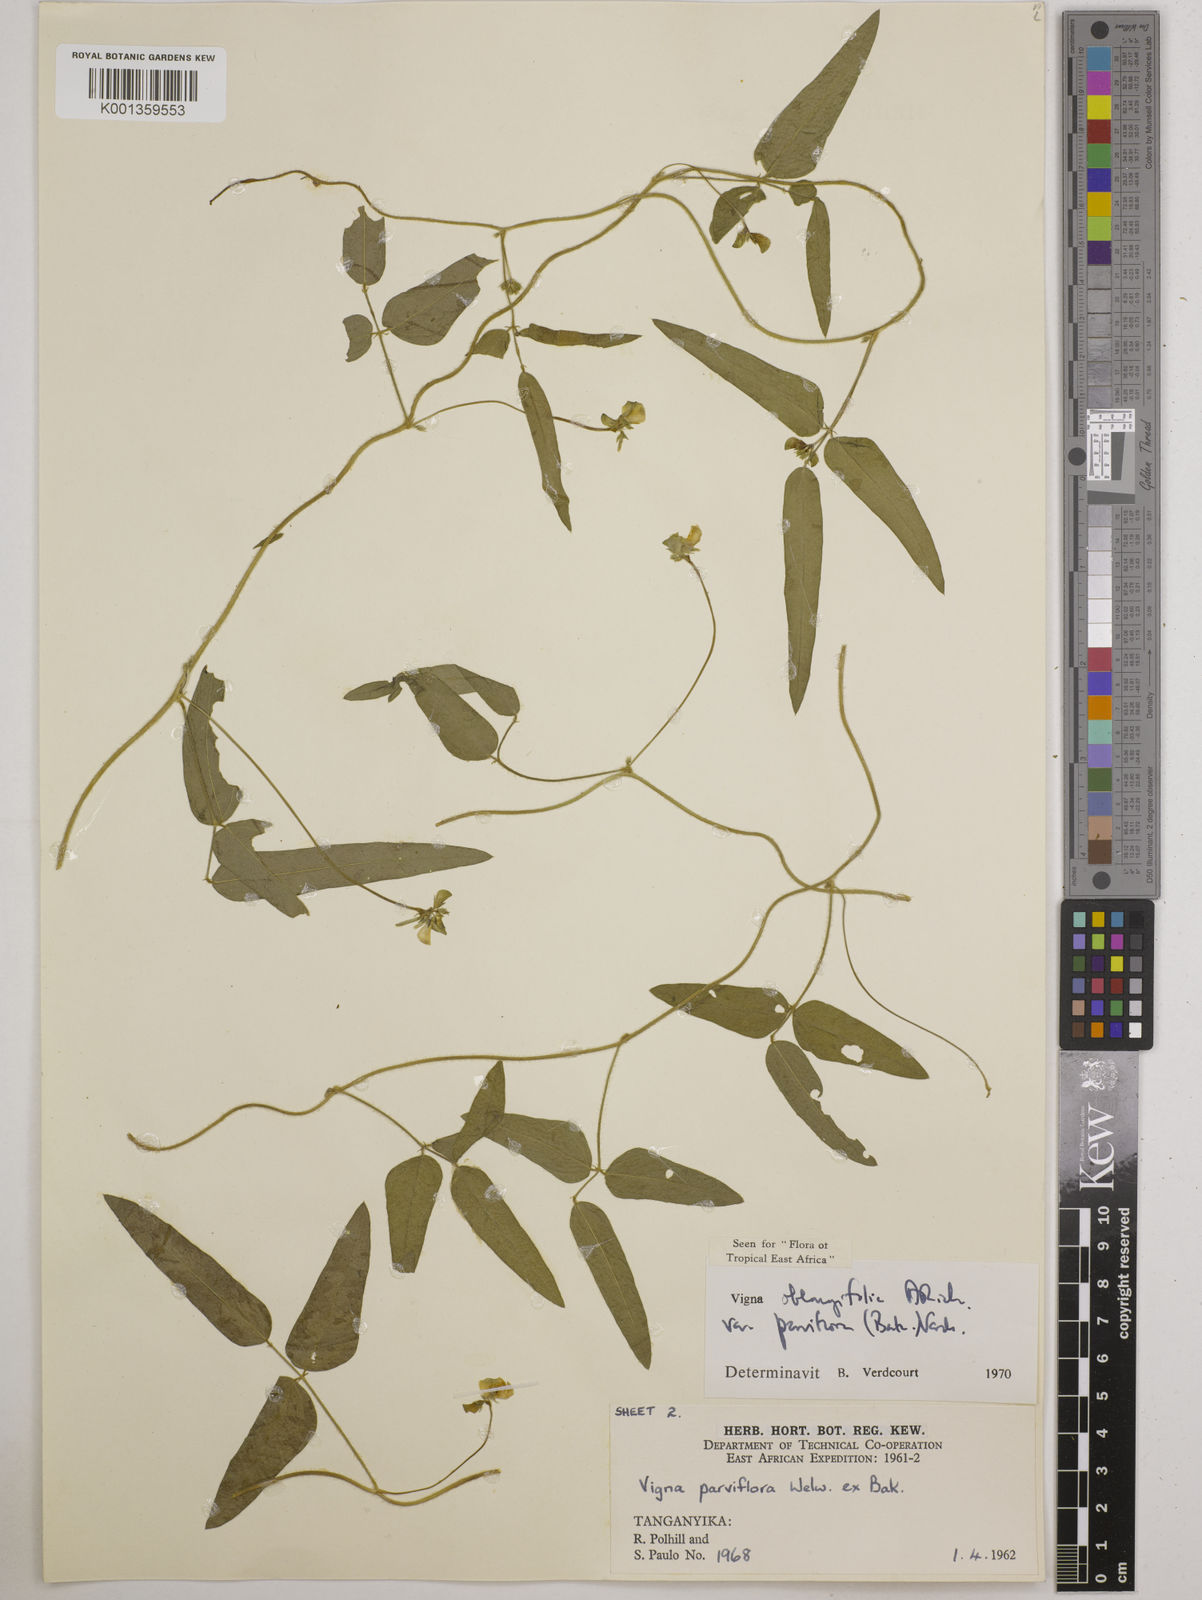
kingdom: Plantae
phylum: Tracheophyta
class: Magnoliopsida
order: Fabales
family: Fabaceae
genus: Vigna
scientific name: Vigna
